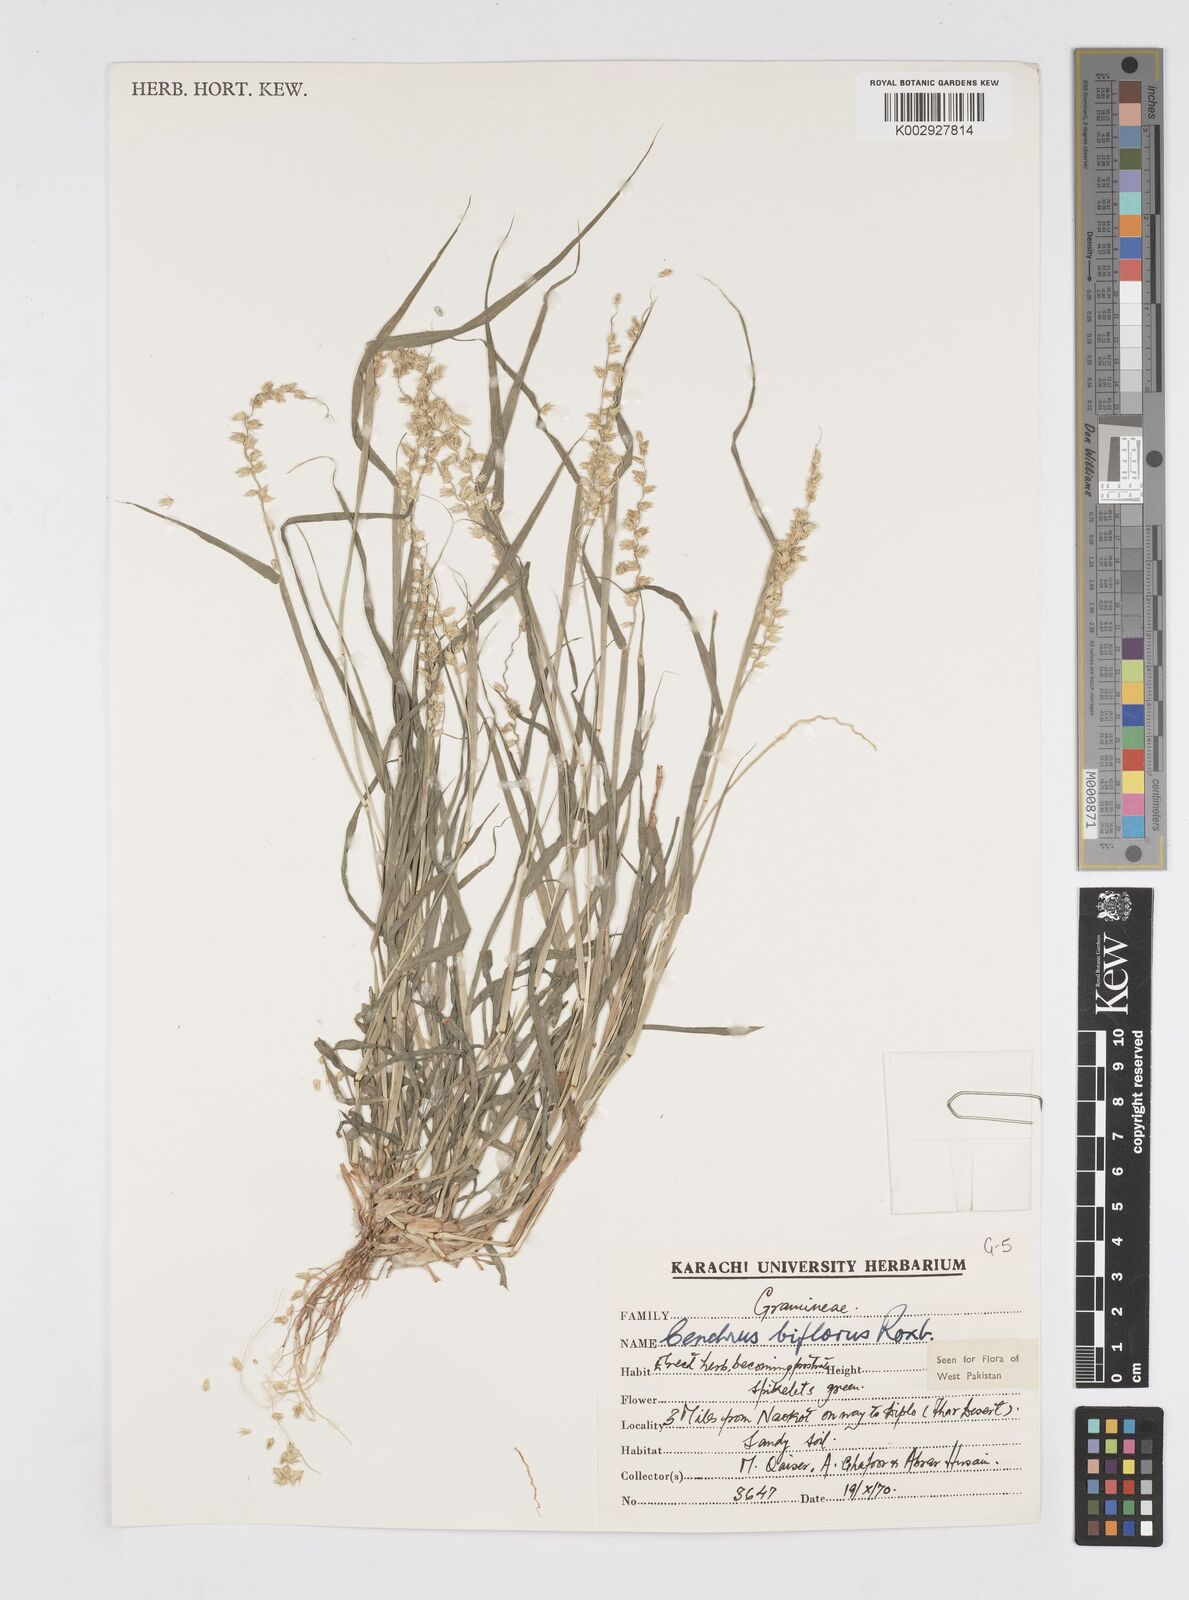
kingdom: Plantae
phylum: Tracheophyta
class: Liliopsida
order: Poales
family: Poaceae
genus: Cenchrus
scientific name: Cenchrus biflorus
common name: Indian sandbur
